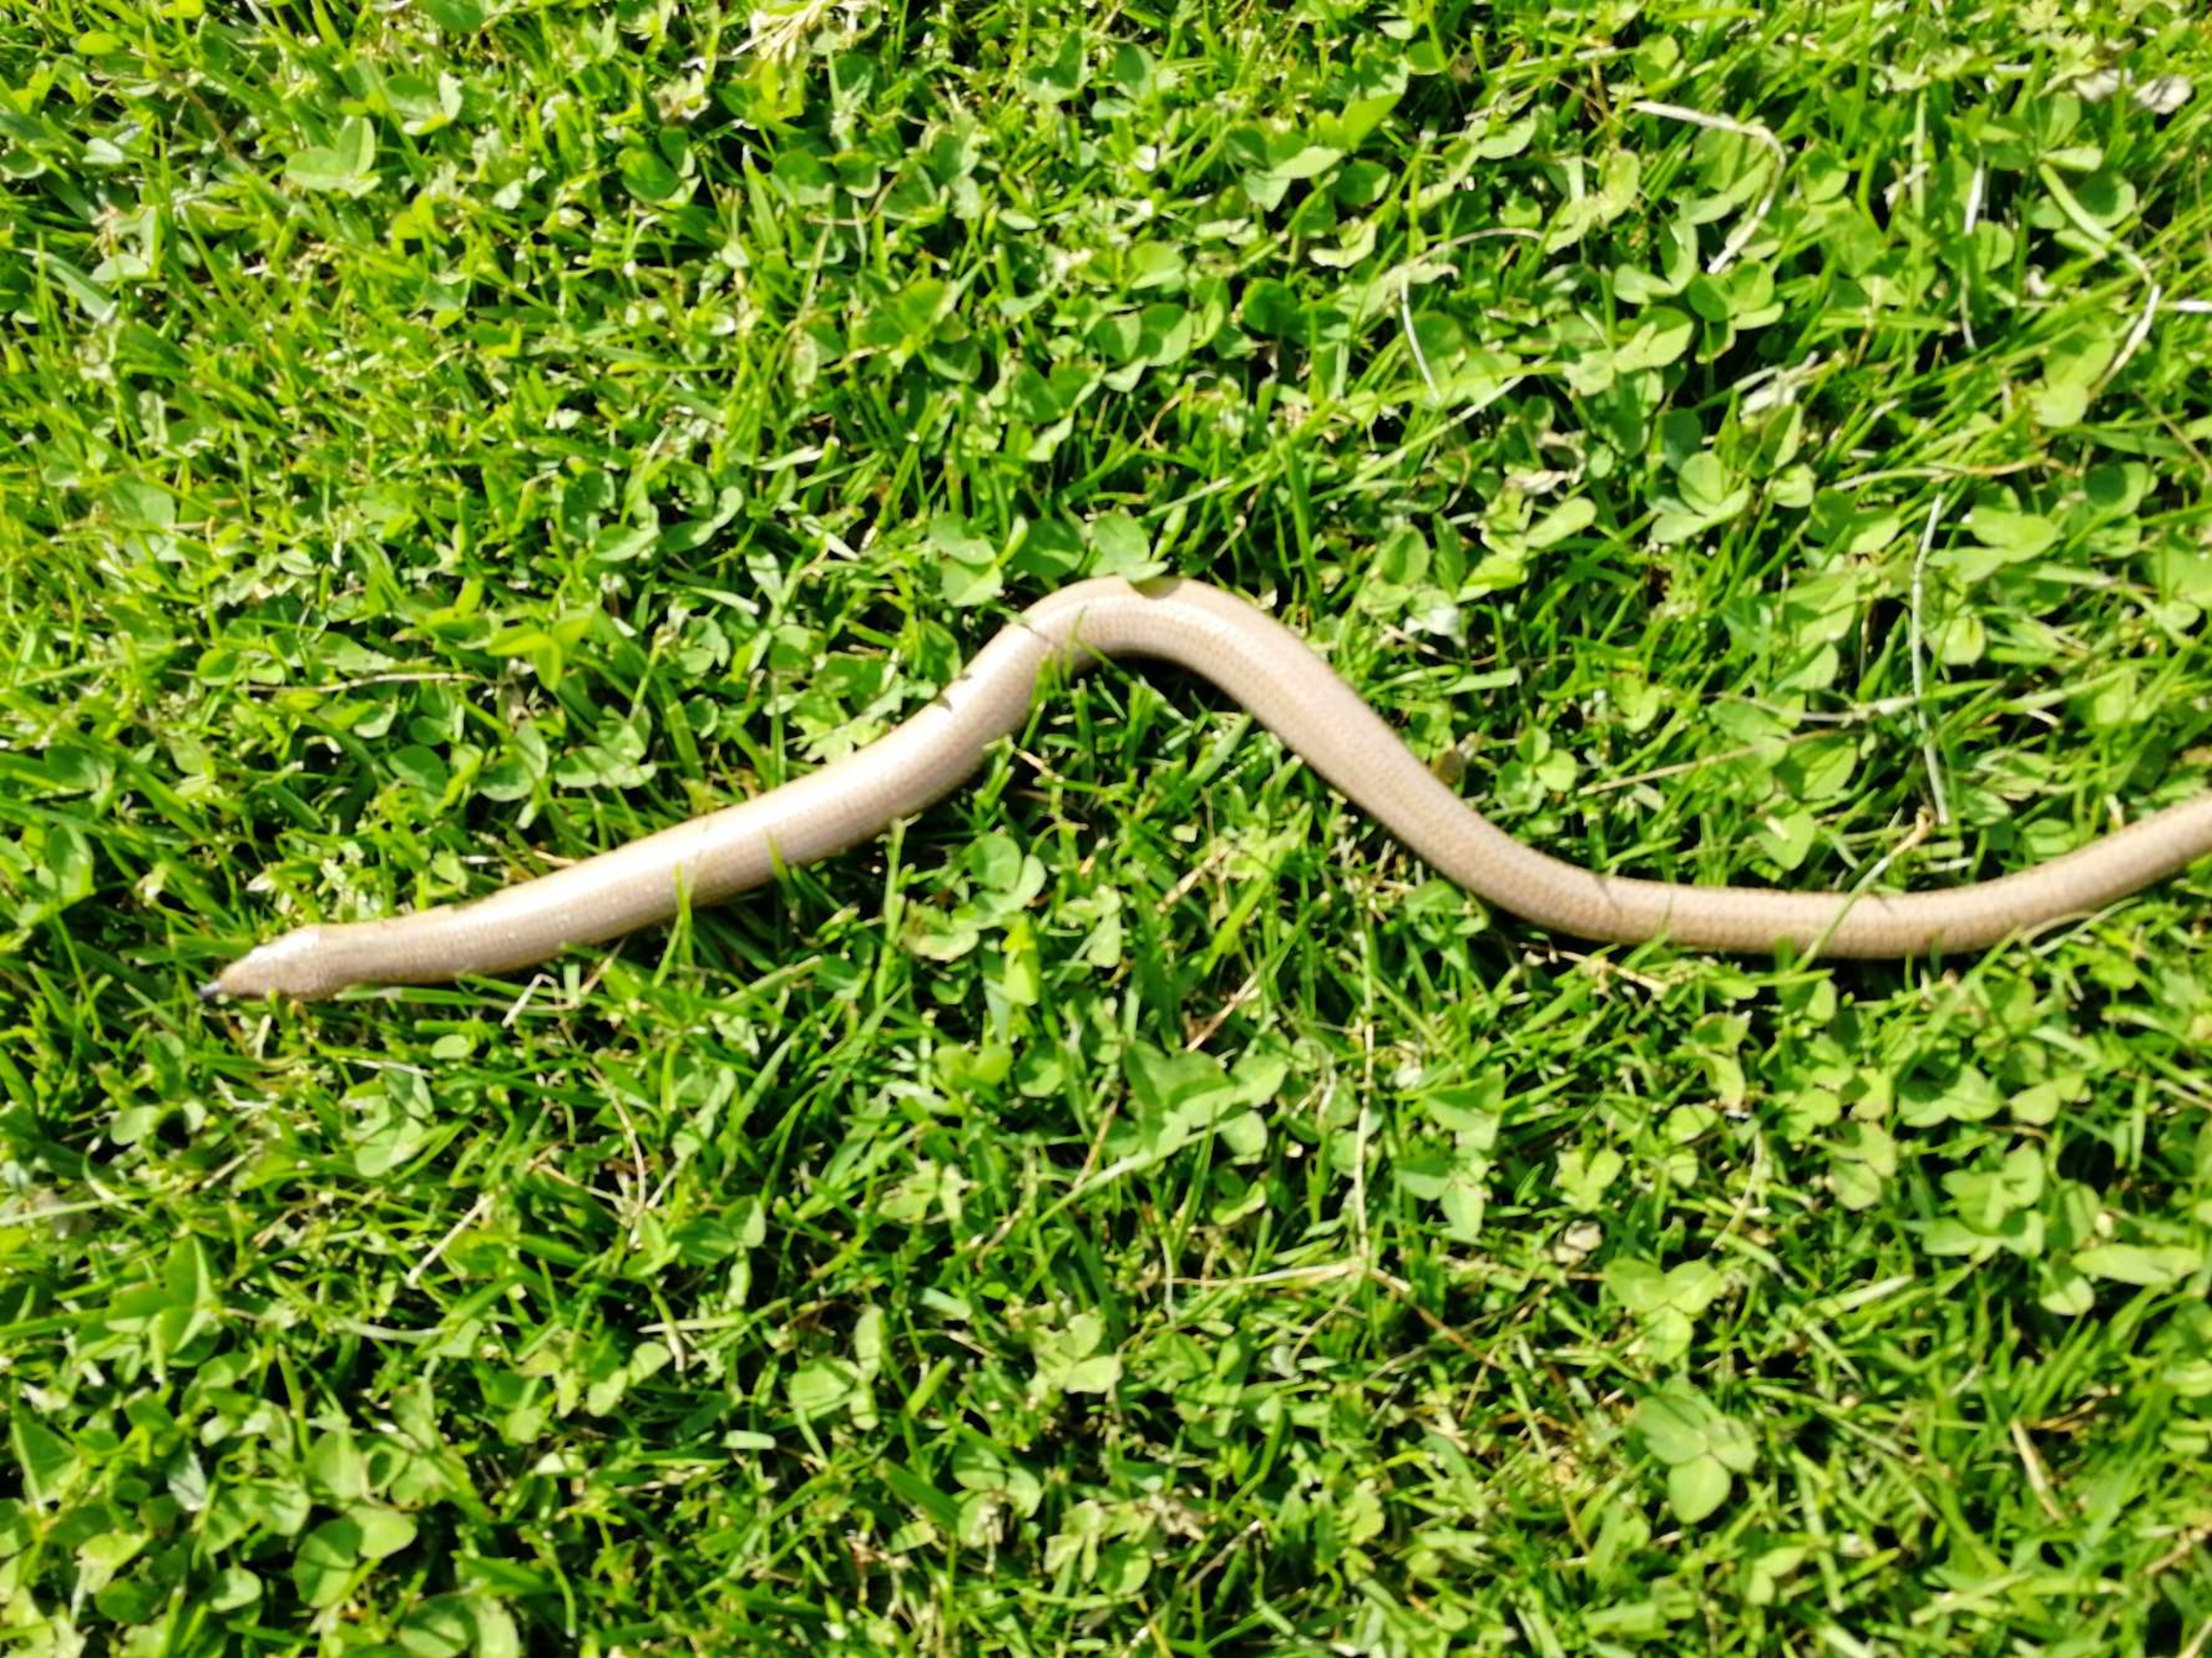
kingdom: Animalia
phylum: Chordata
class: Squamata
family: Anguidae
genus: Anguis
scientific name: Anguis fragilis
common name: Stålorm
